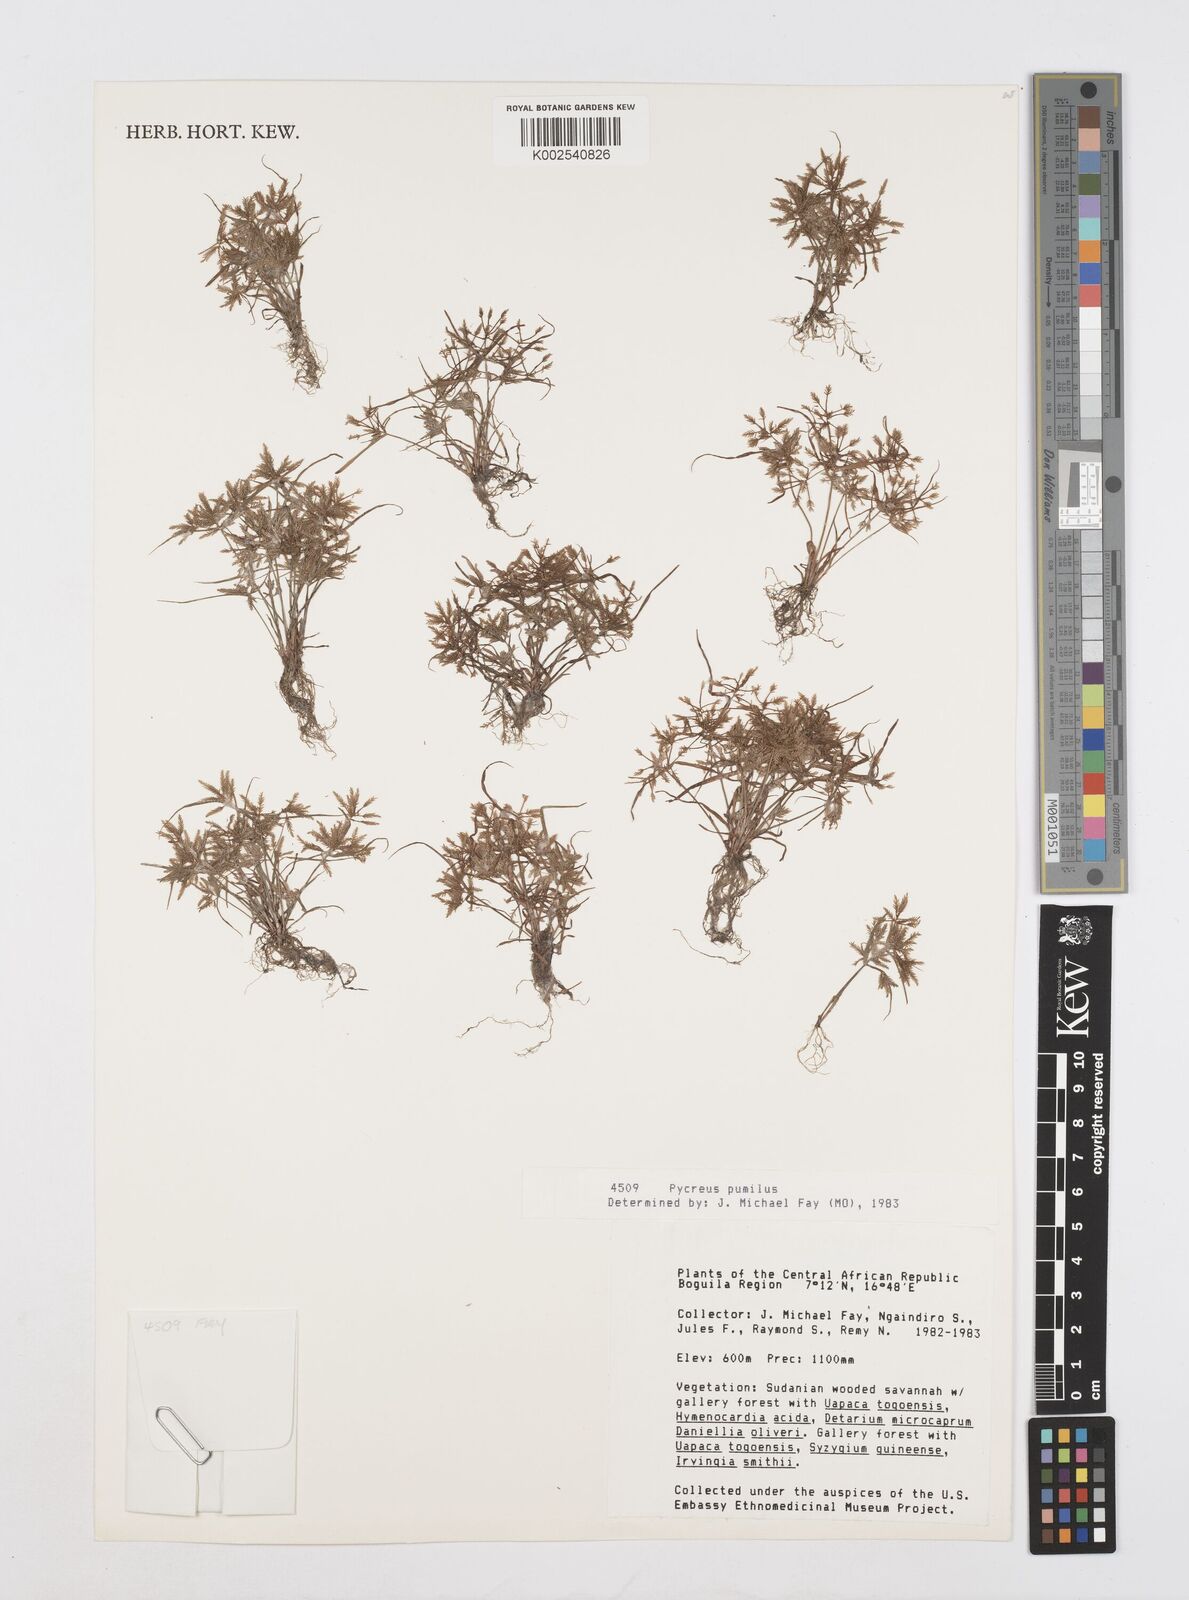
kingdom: Plantae
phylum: Tracheophyta
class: Liliopsida
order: Poales
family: Cyperaceae
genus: Cyperus
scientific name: Cyperus pumilus
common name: Low flatsedge
